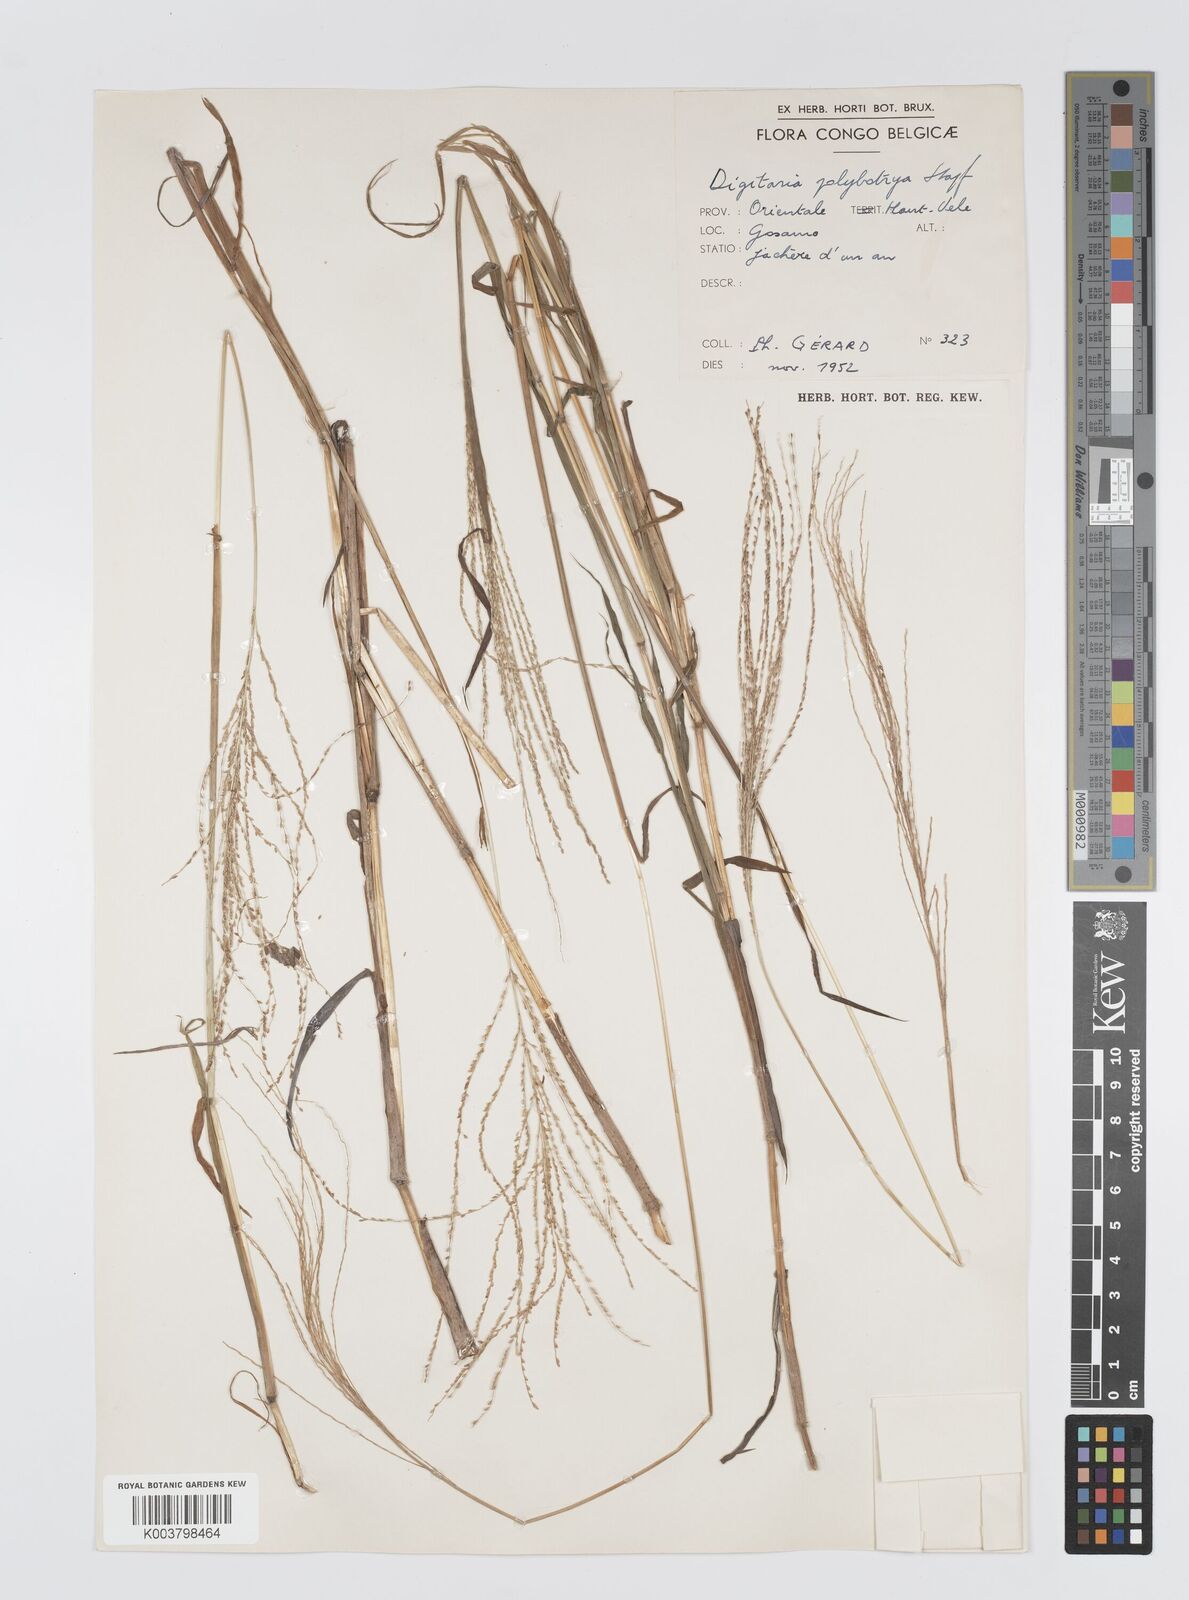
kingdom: Plantae
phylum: Tracheophyta
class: Liliopsida
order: Poales
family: Poaceae
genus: Digitaria
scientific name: Digitaria leptorhachis
